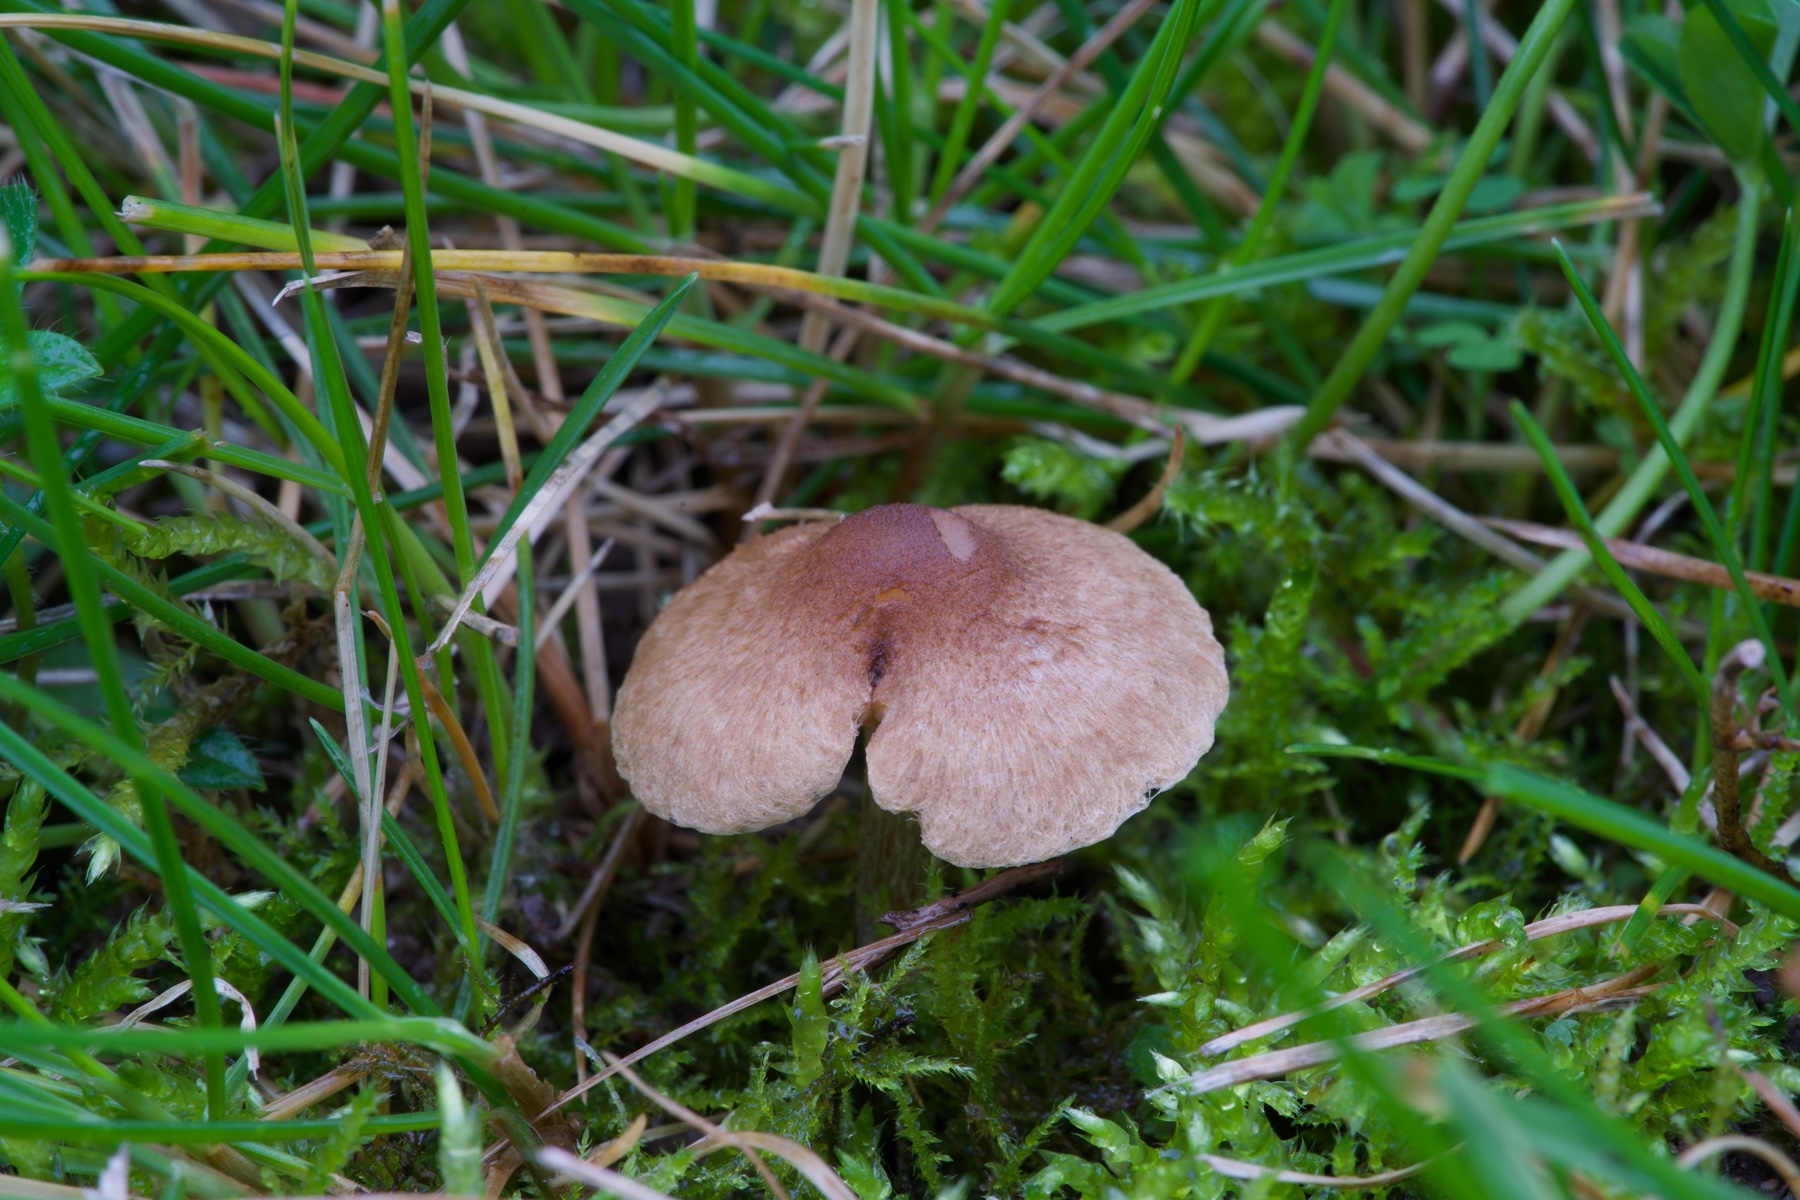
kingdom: Fungi
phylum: Basidiomycota
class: Agaricomycetes
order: Agaricales
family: Inocybaceae
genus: Inocybe
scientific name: Inocybe curvipes
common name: plæne-trævlhat
